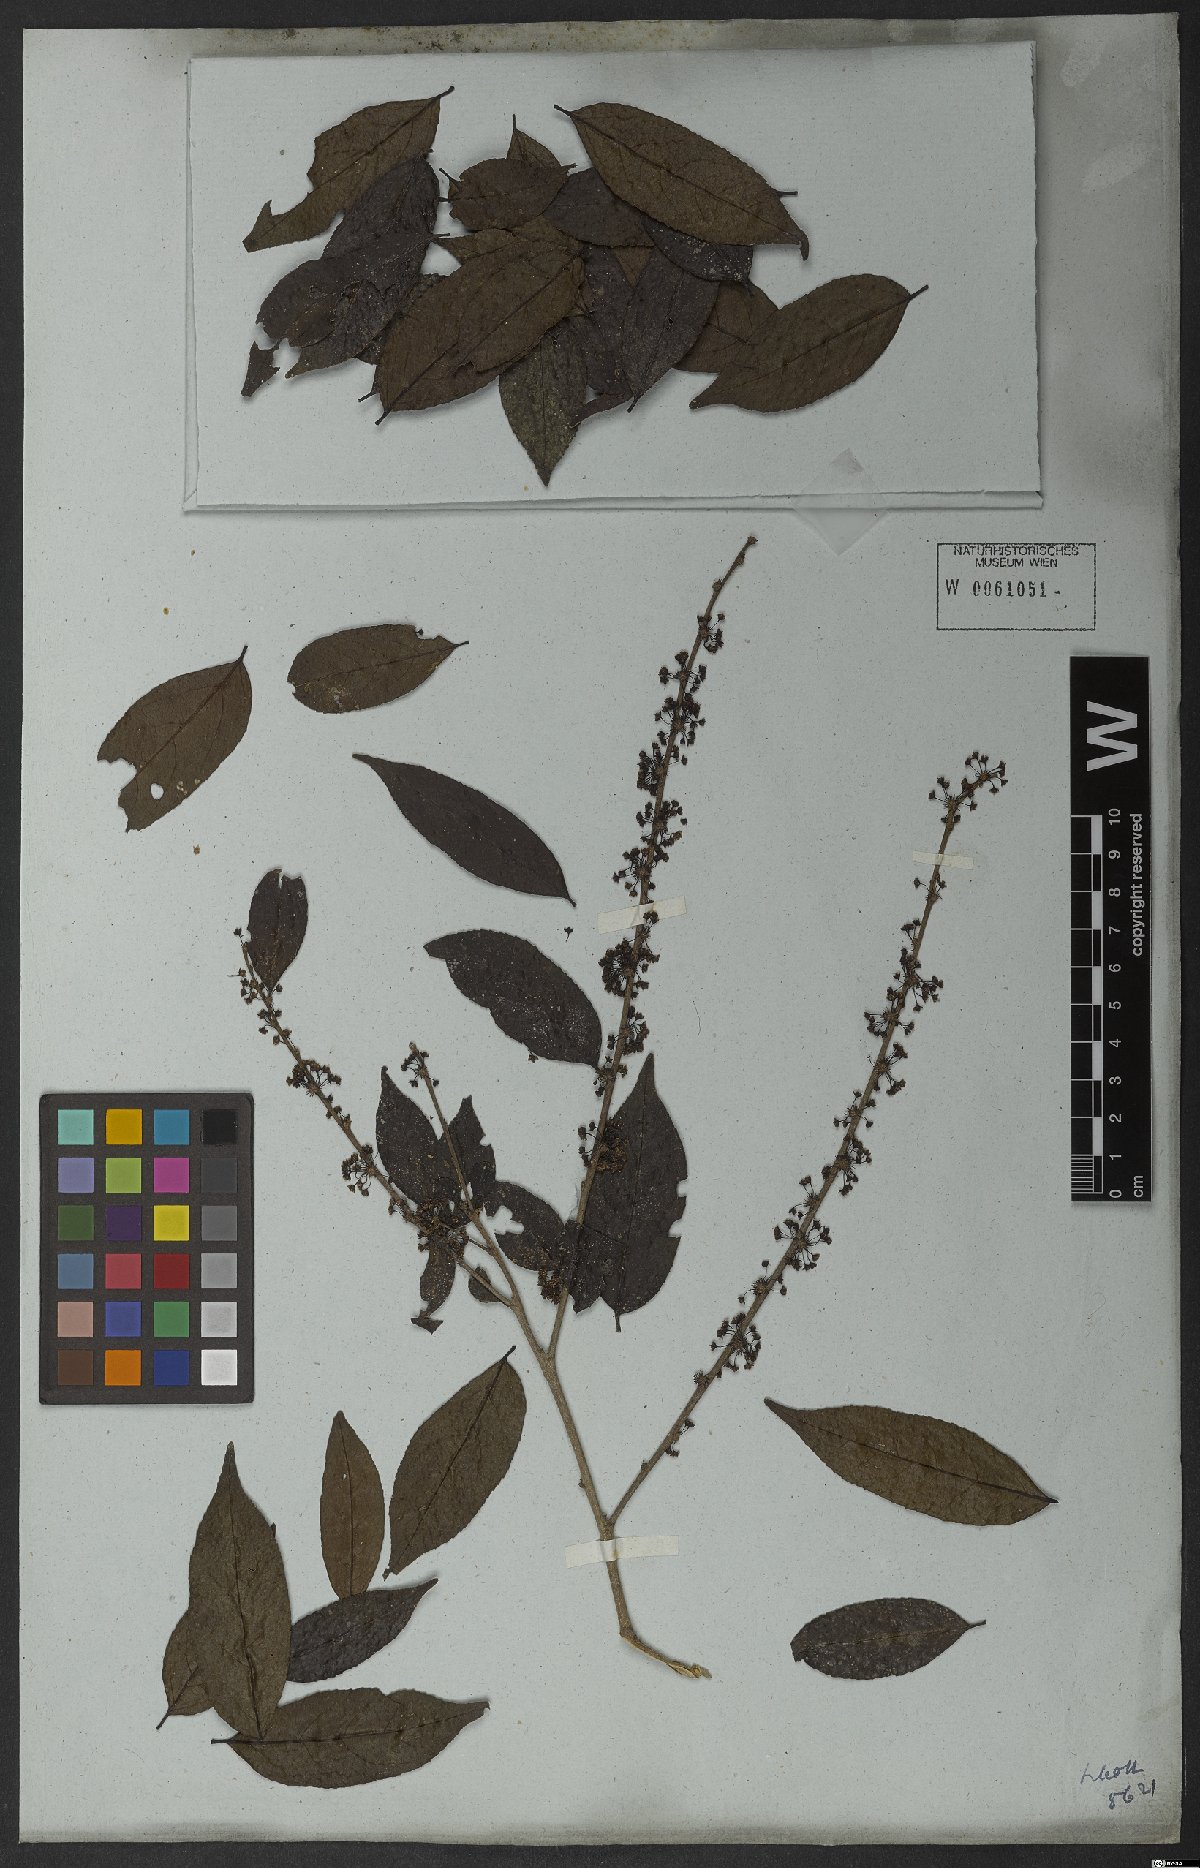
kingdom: Plantae
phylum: Tracheophyta
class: Magnoliopsida
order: Malpighiales
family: Salicaceae
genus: Casearia
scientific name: Casearia sylvestris
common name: Wild sage
